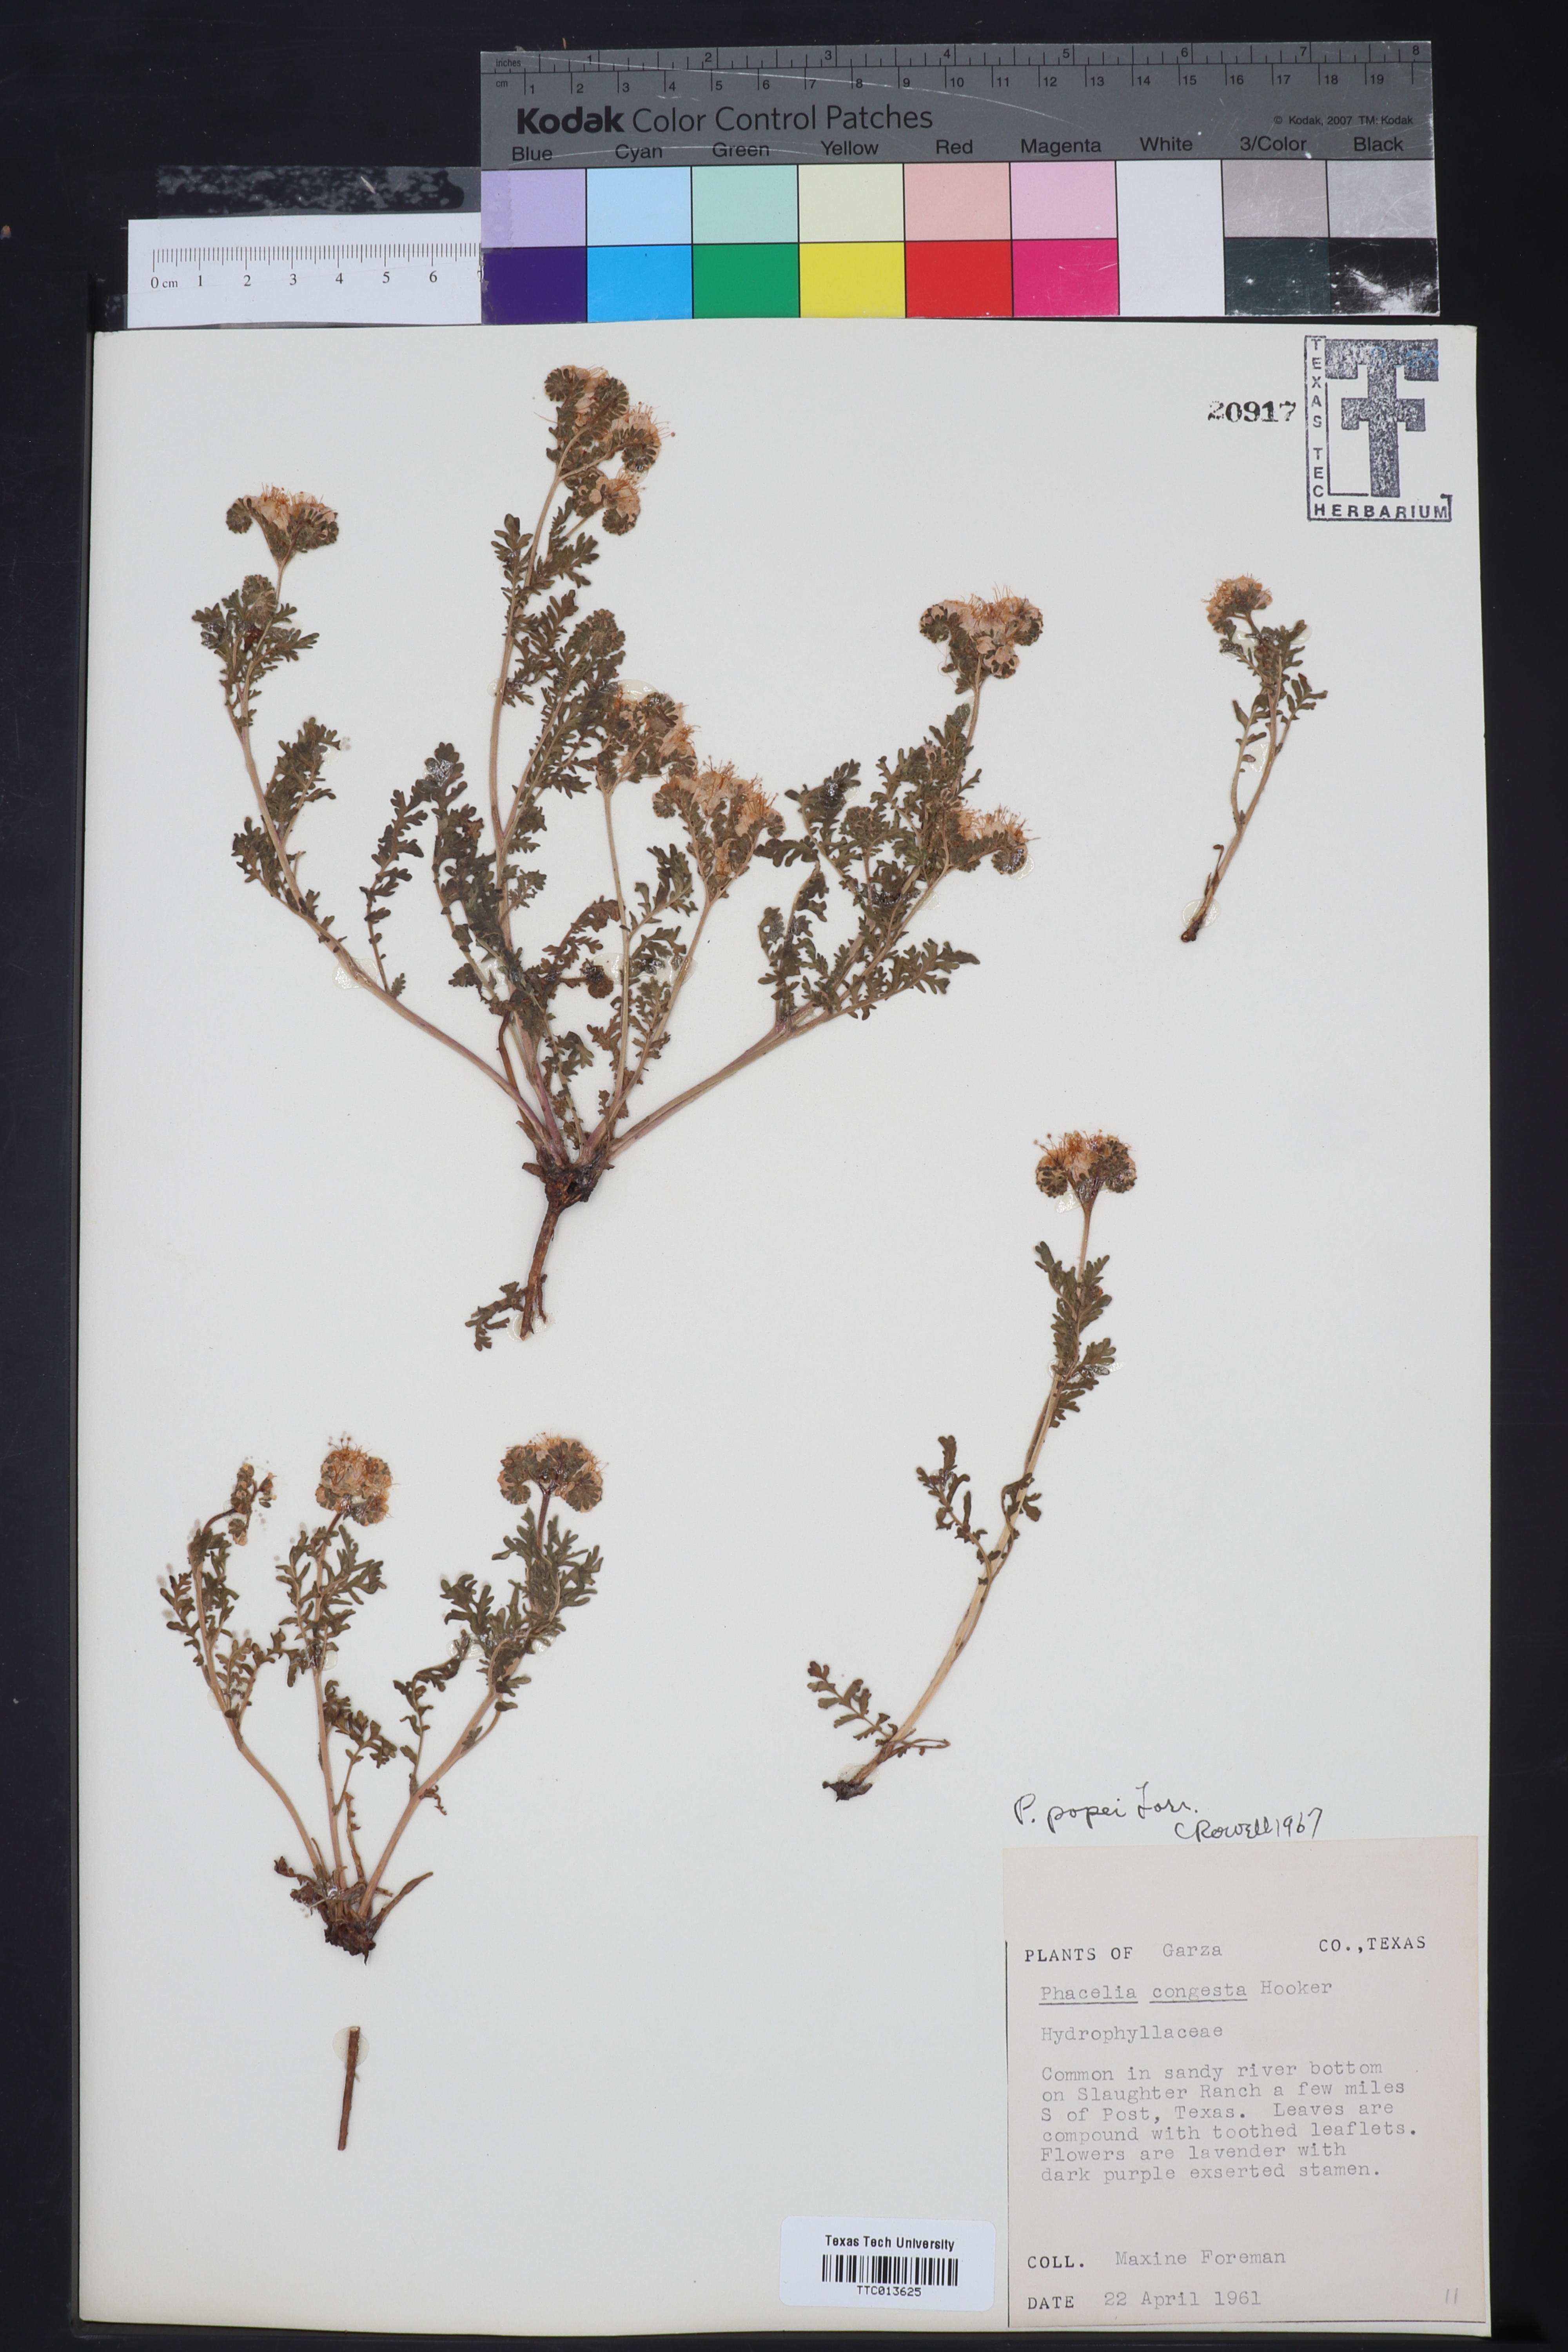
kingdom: Plantae
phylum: Tracheophyta
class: Magnoliopsida
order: Boraginales
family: Hydrophyllaceae
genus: Phacelia
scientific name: Phacelia popei
